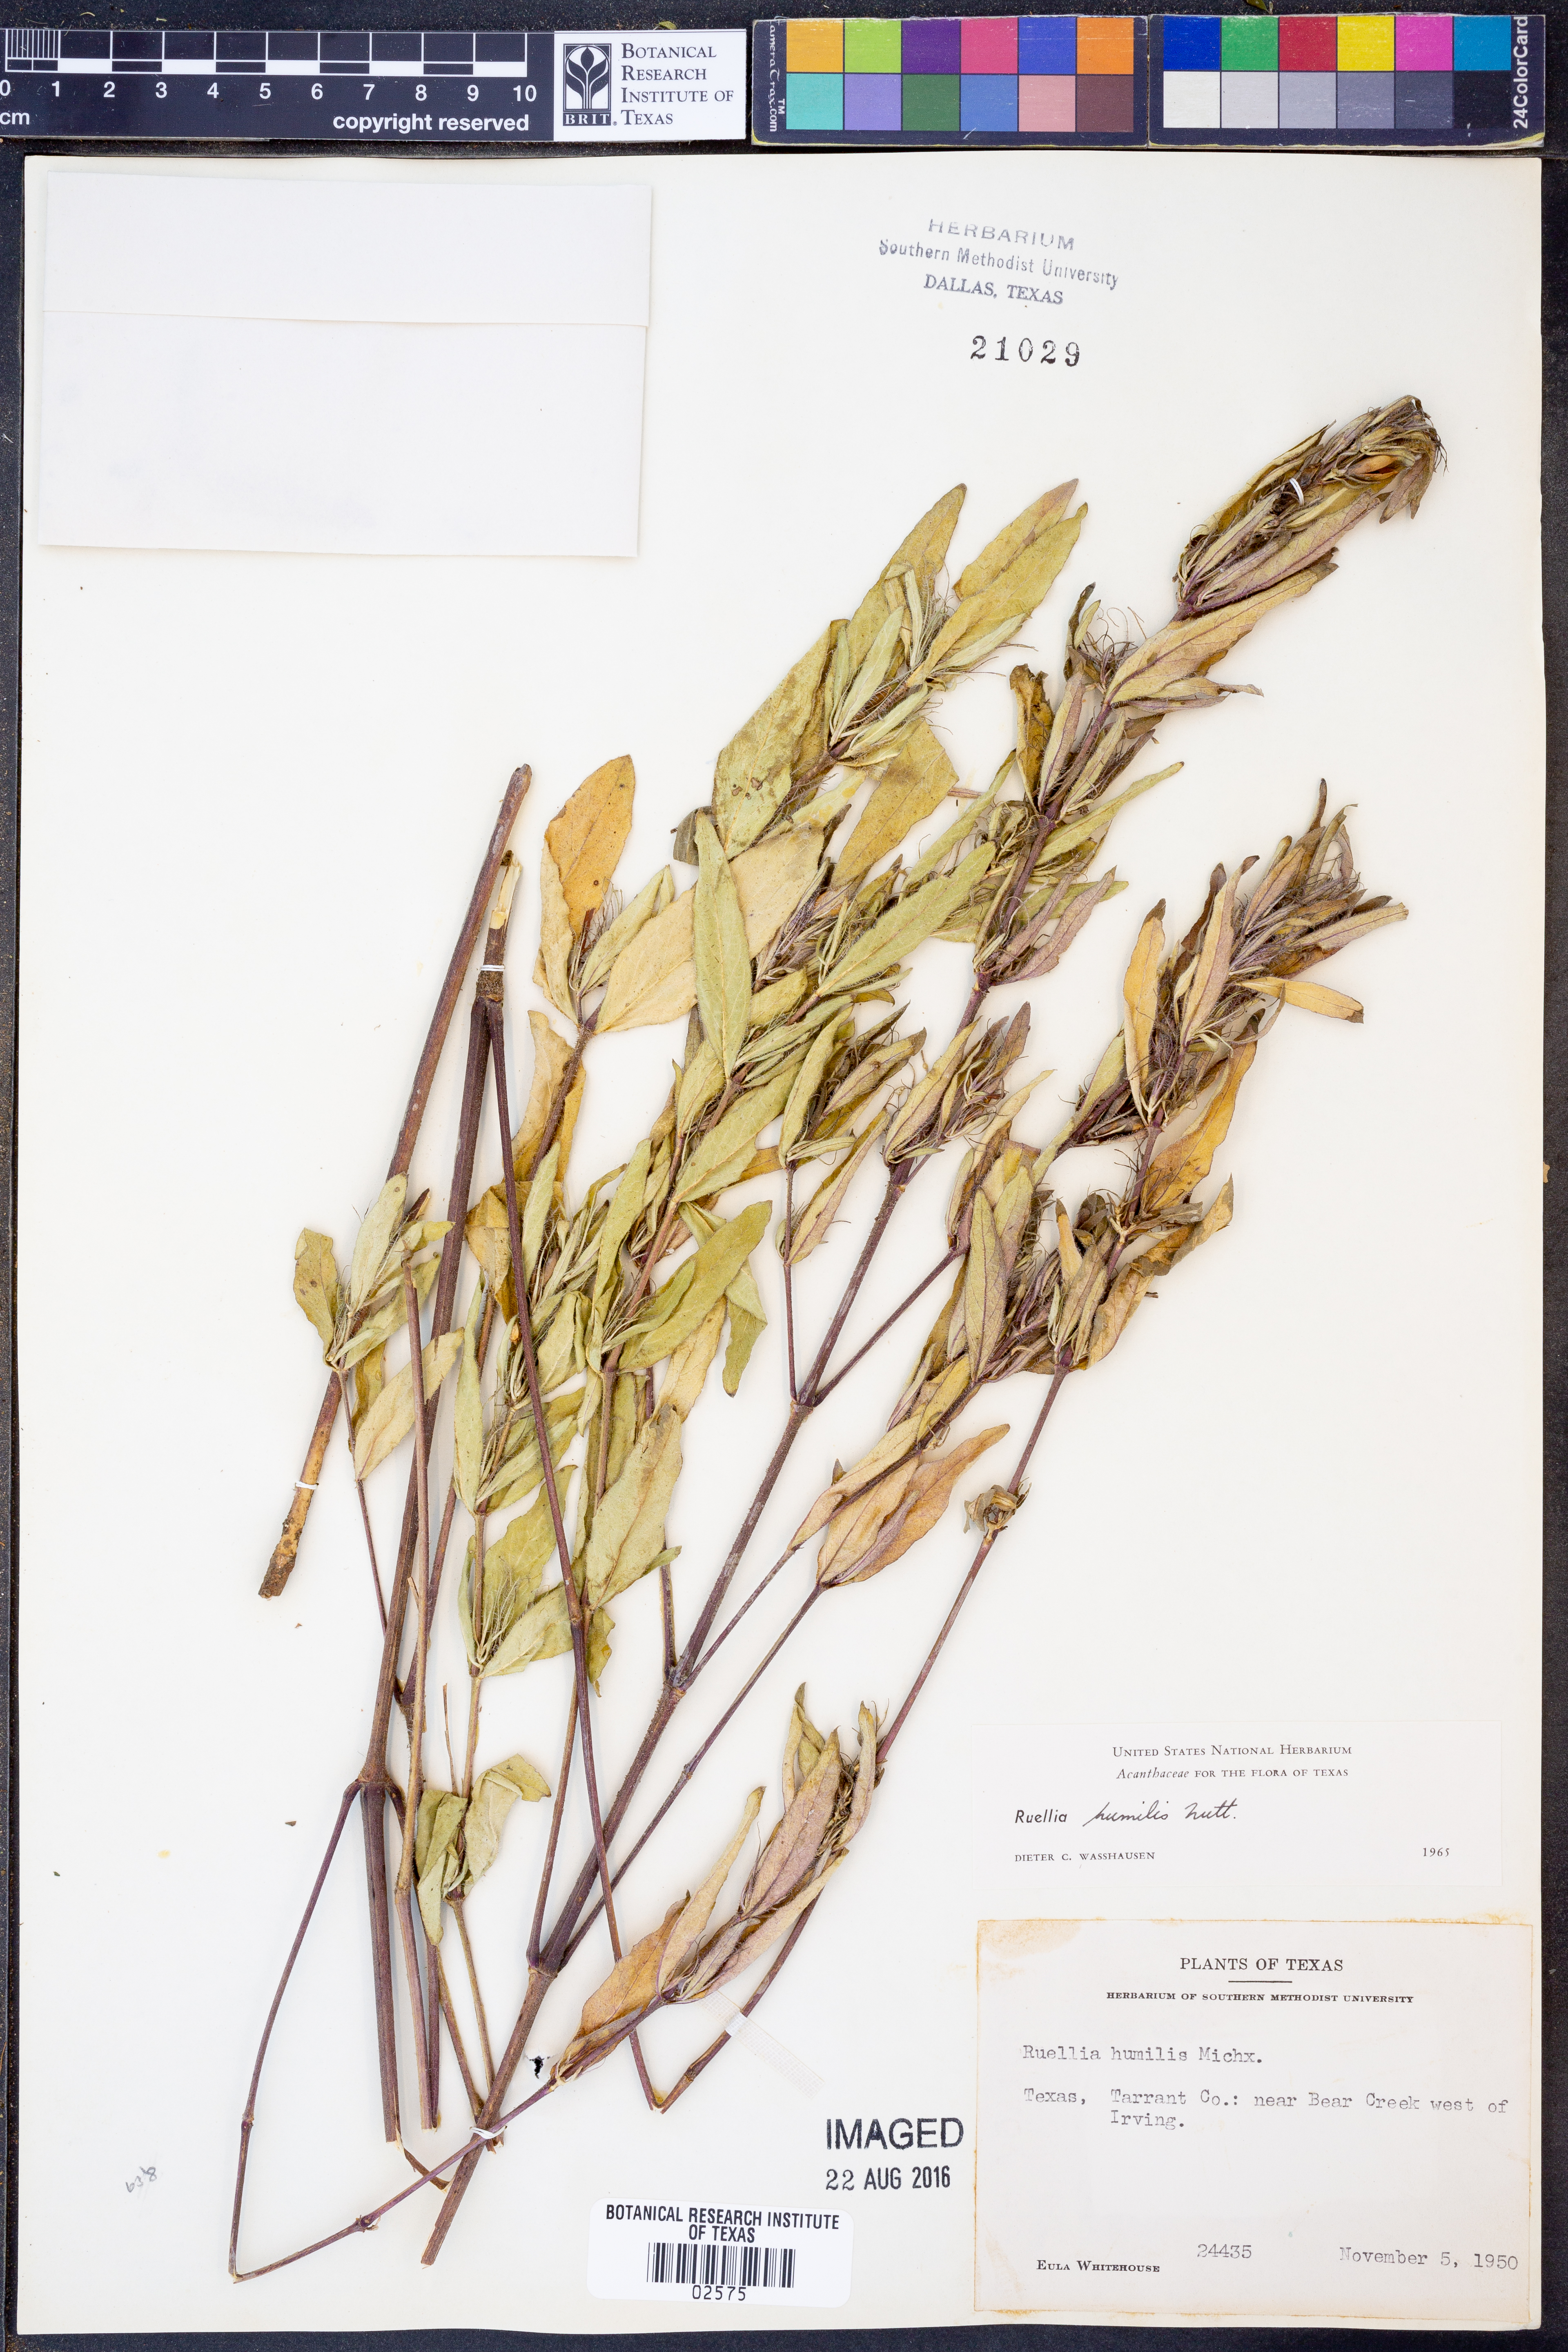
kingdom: Plantae
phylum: Tracheophyta
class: Magnoliopsida
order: Lamiales
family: Acanthaceae
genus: Ruellia
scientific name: Ruellia humilis
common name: Fringe-leaf ruellia
